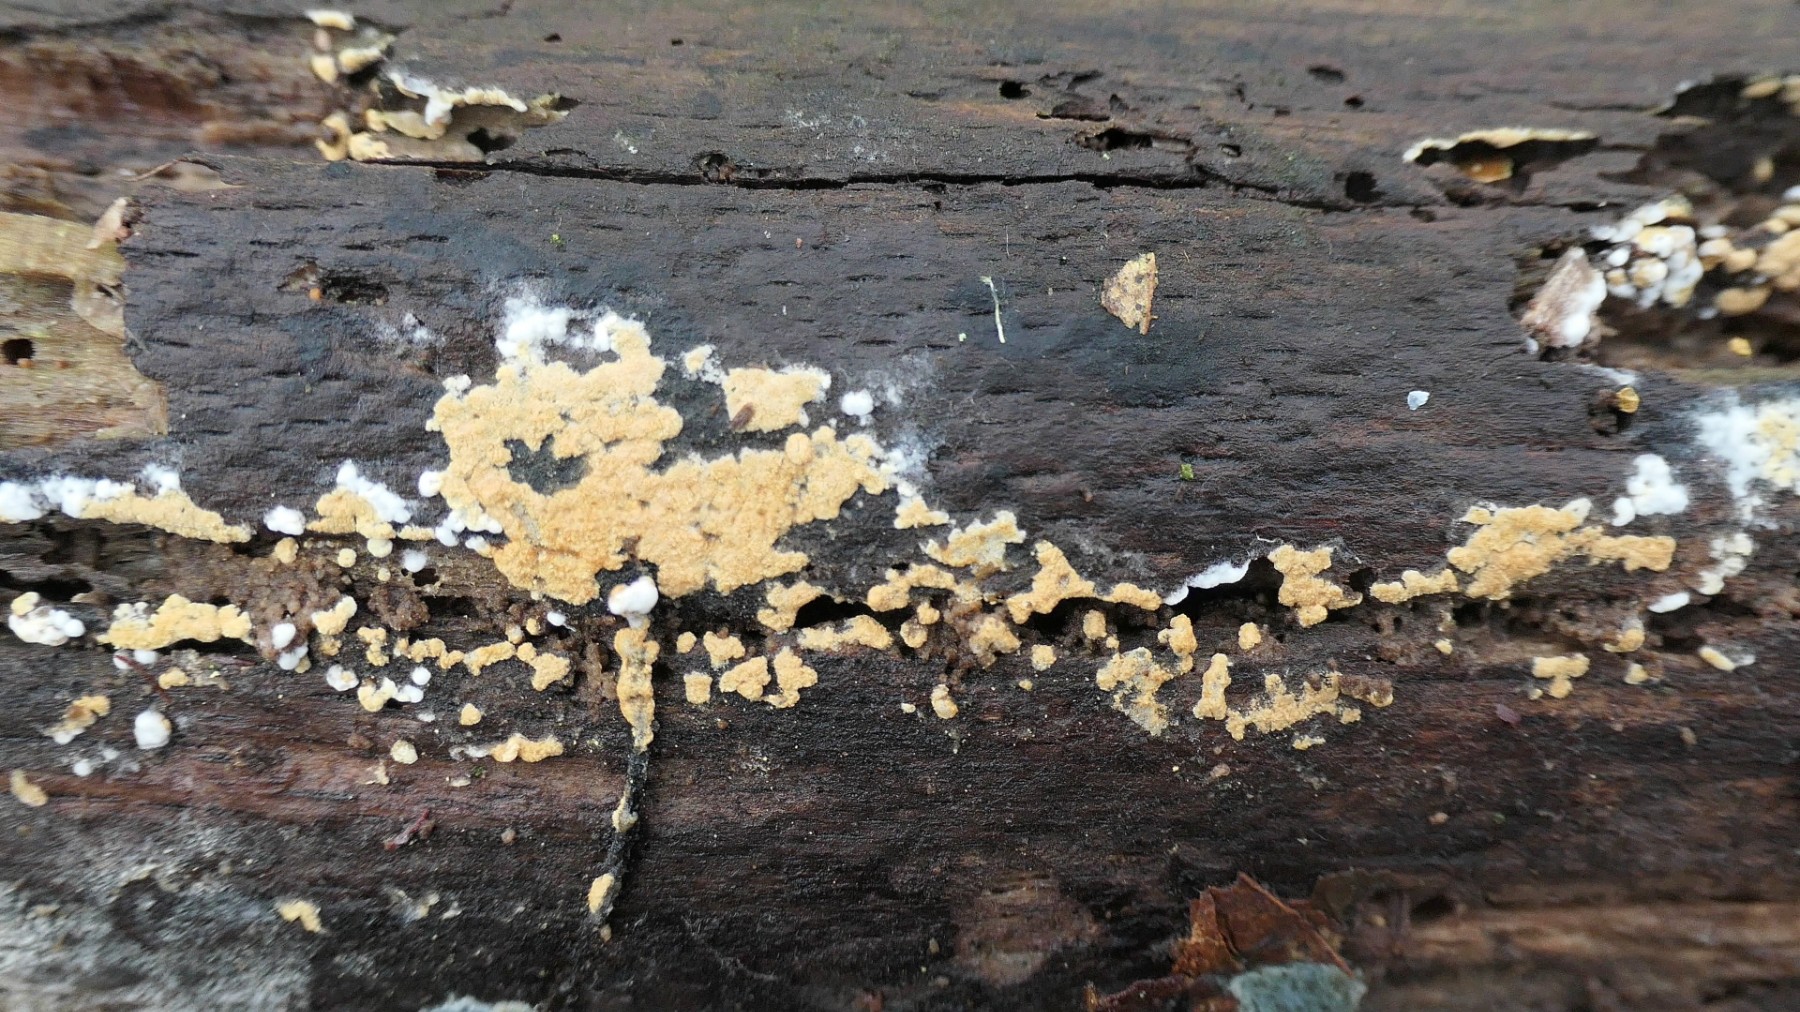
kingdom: Fungi
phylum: Basidiomycota
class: Agaricomycetes
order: Cantharellales
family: Botryobasidiaceae
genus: Botryobasidium
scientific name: Botryobasidium aureum
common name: gylden spindhinde
